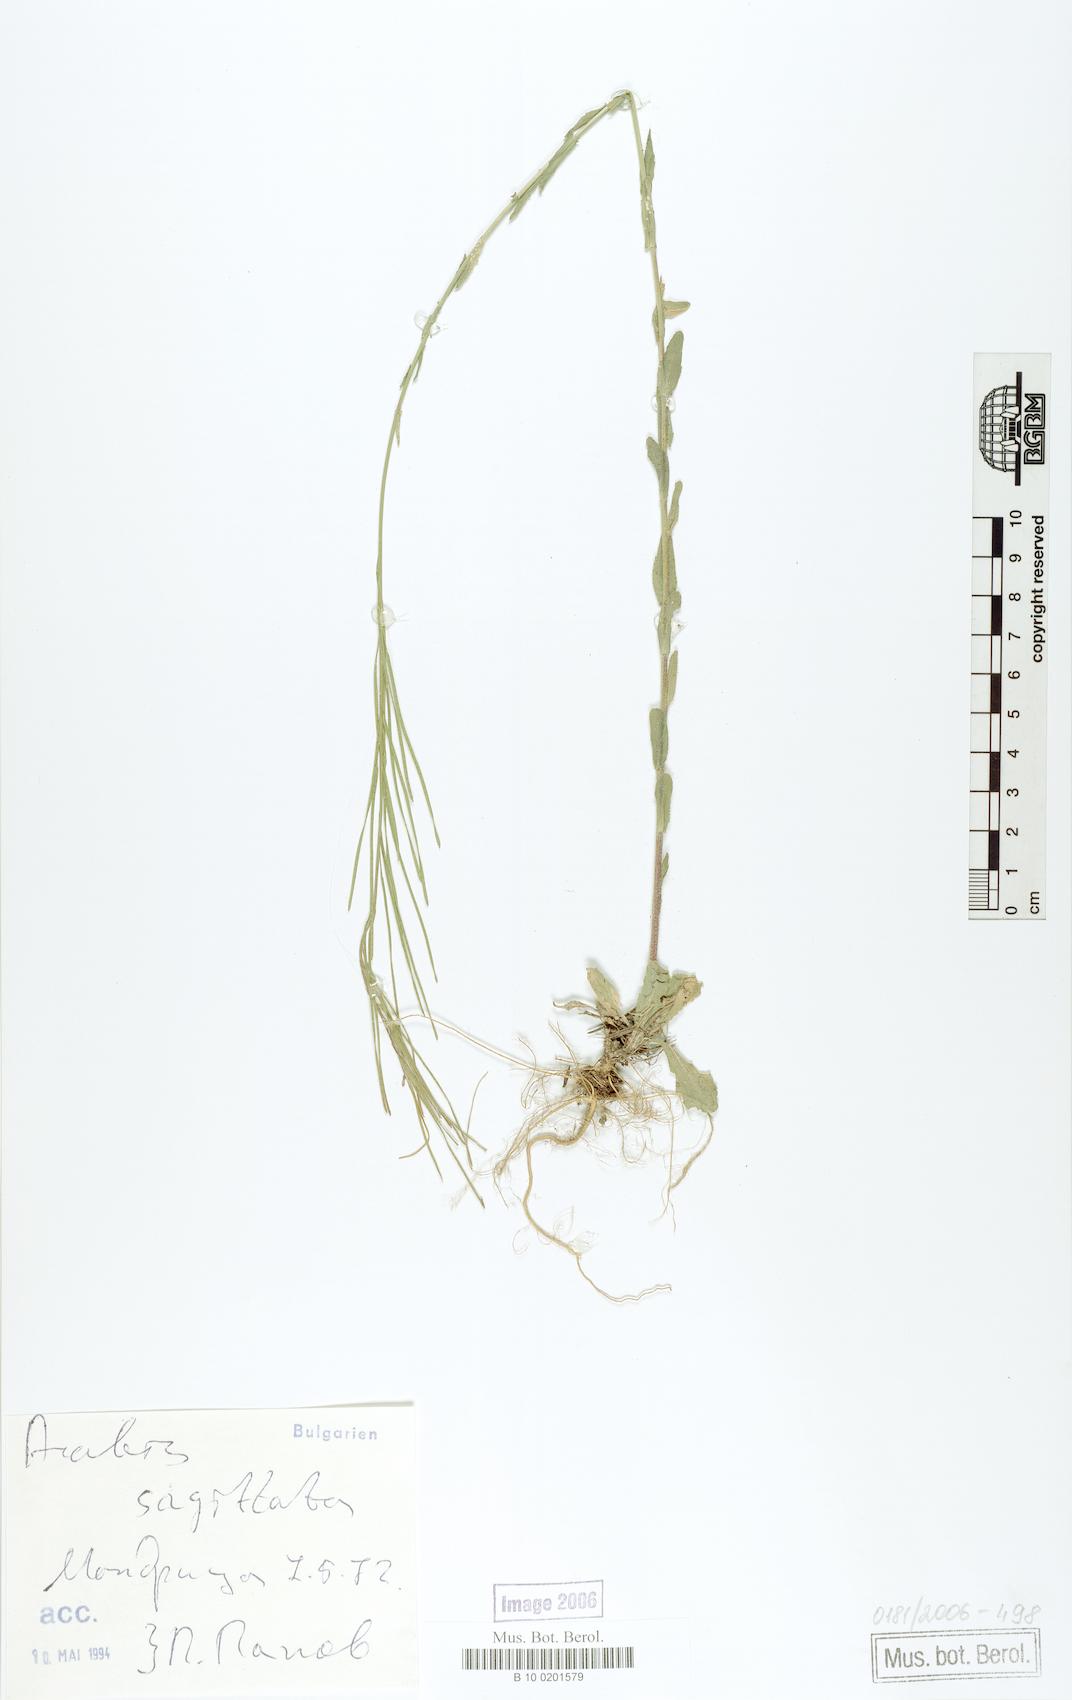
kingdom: Plantae
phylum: Tracheophyta
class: Magnoliopsida
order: Brassicales
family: Brassicaceae
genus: Arabis
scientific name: Arabis sagittata
